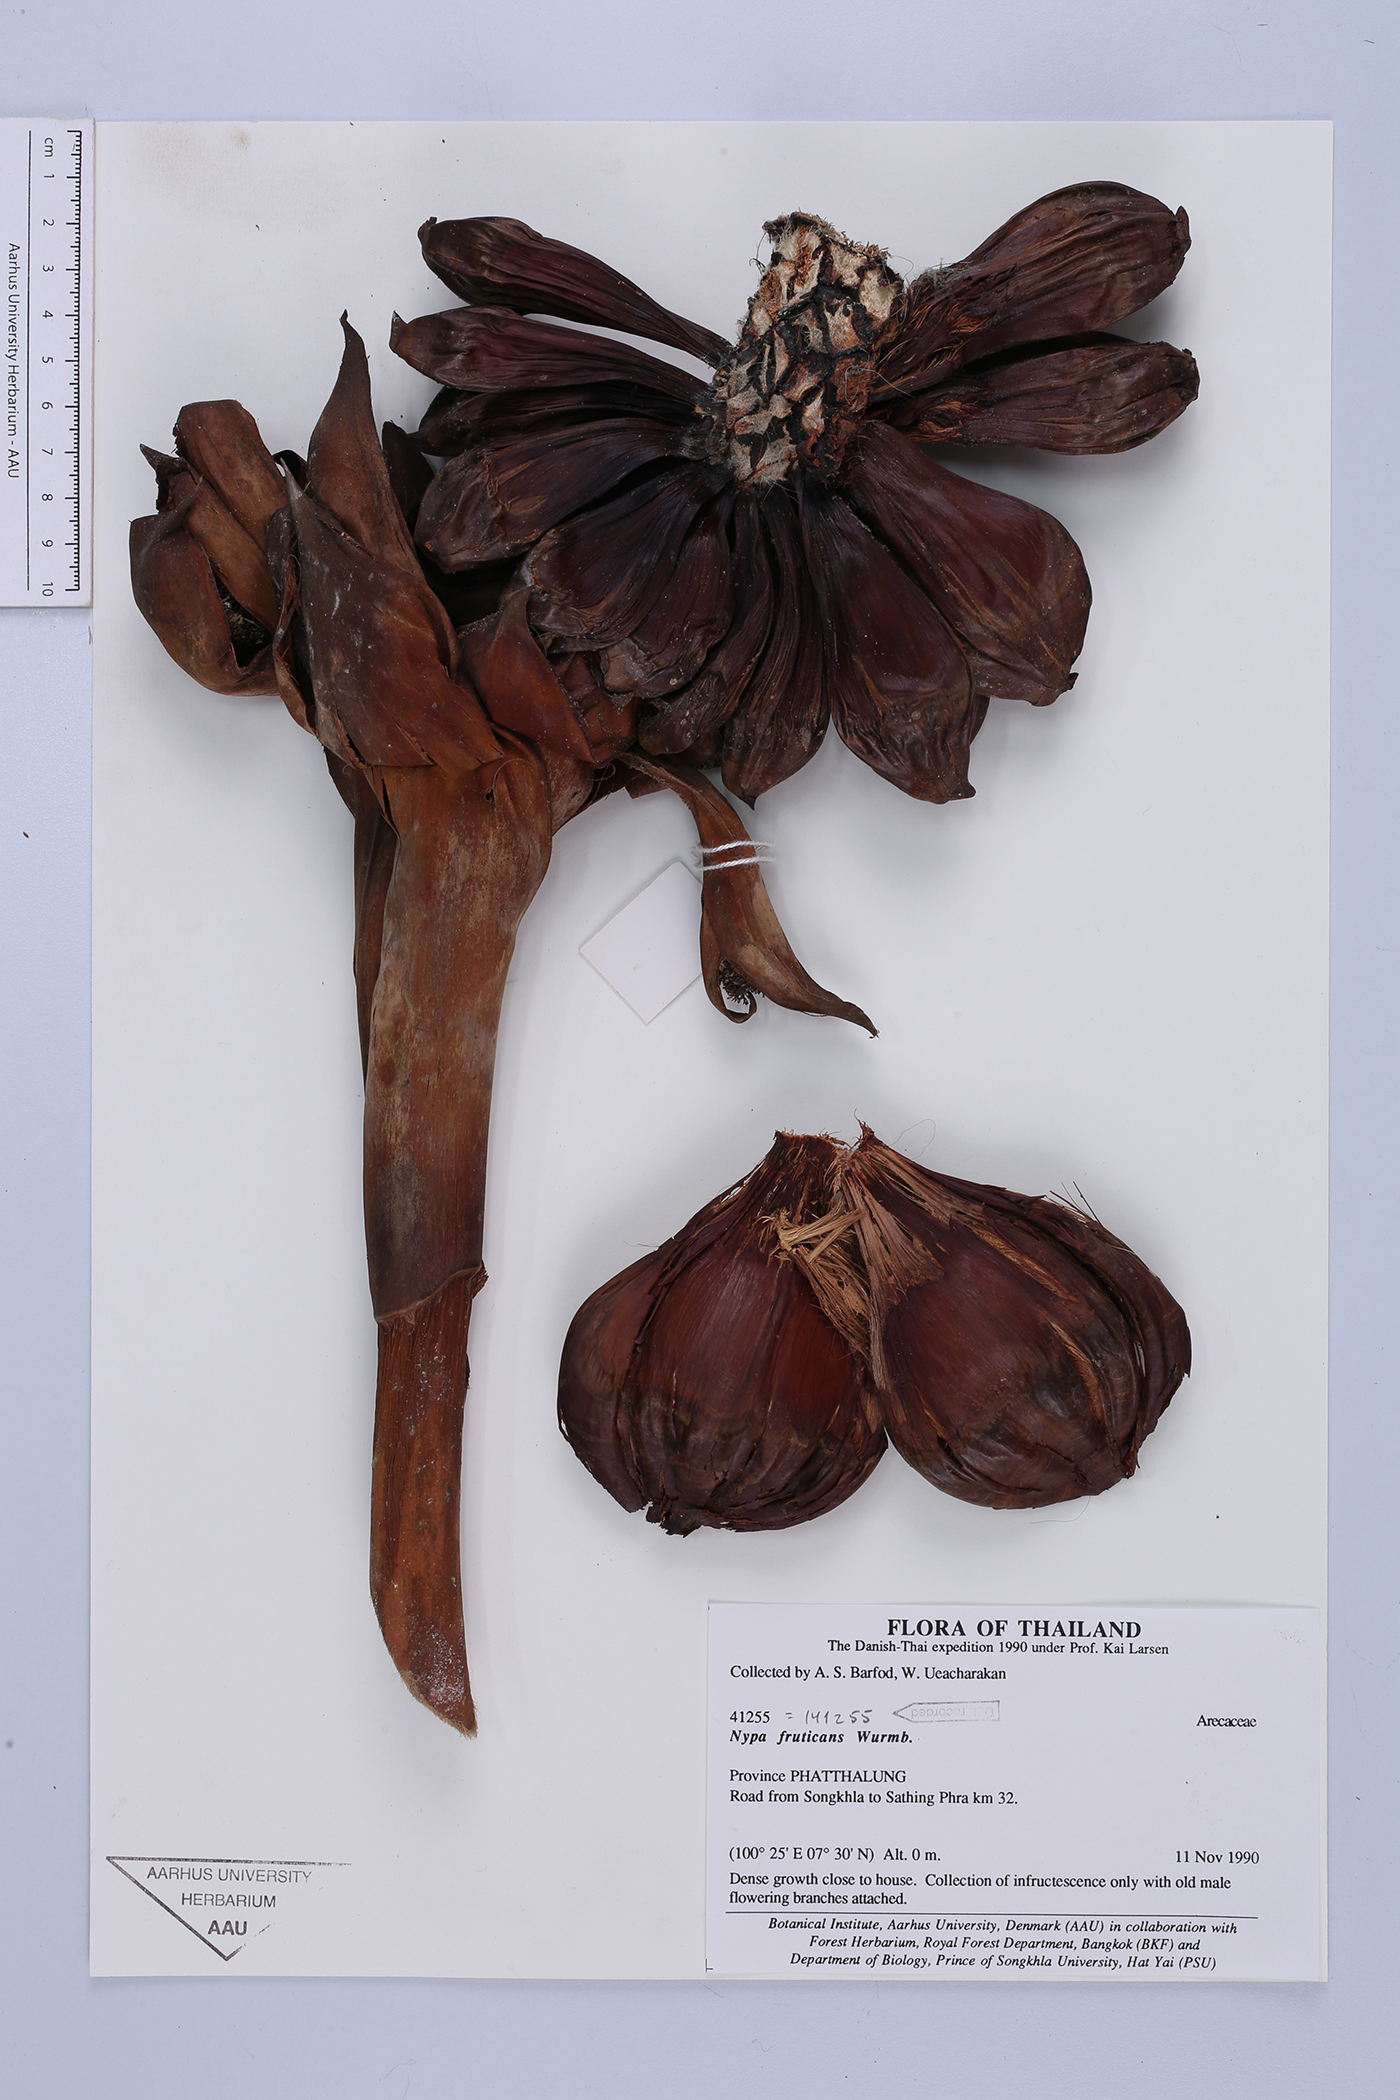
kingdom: Plantae
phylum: Tracheophyta
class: Liliopsida
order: Arecales
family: Arecaceae
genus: Nypa
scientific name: Nypa fruticans
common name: Mangrove palm
